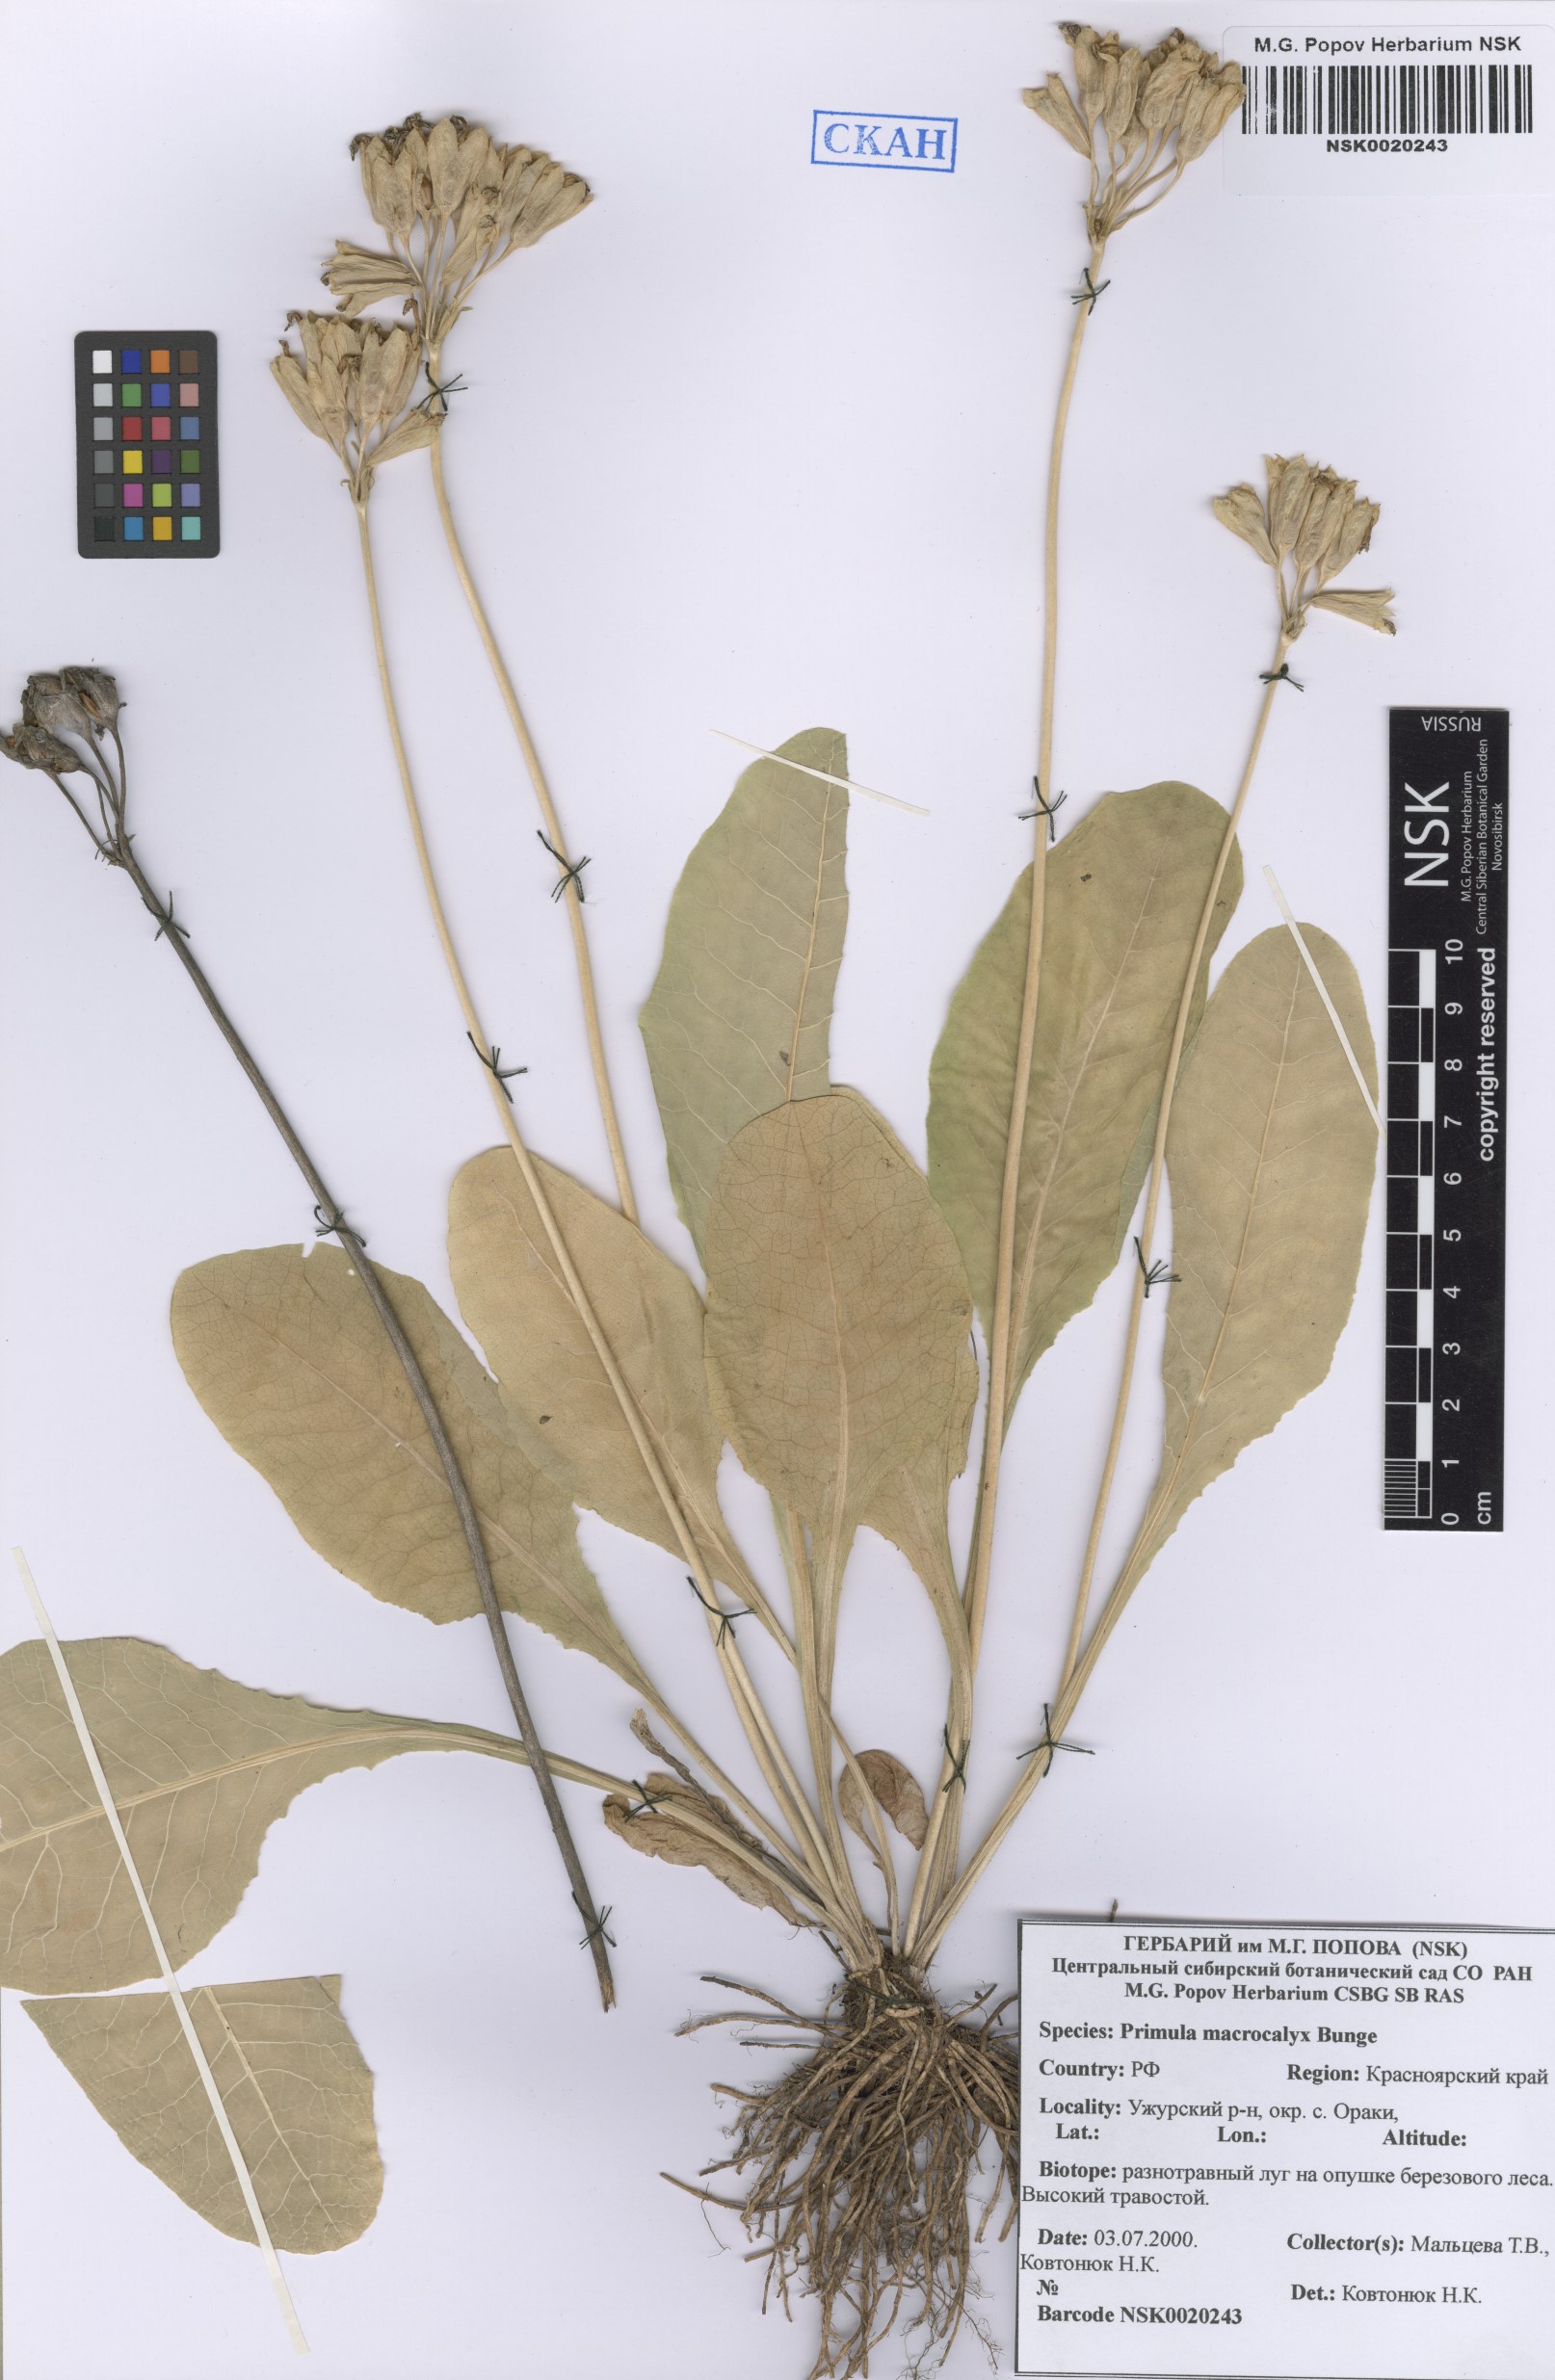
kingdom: Plantae
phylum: Tracheophyta
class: Magnoliopsida
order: Ericales
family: Primulaceae
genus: Primula
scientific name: Primula veris
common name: Cowslip
